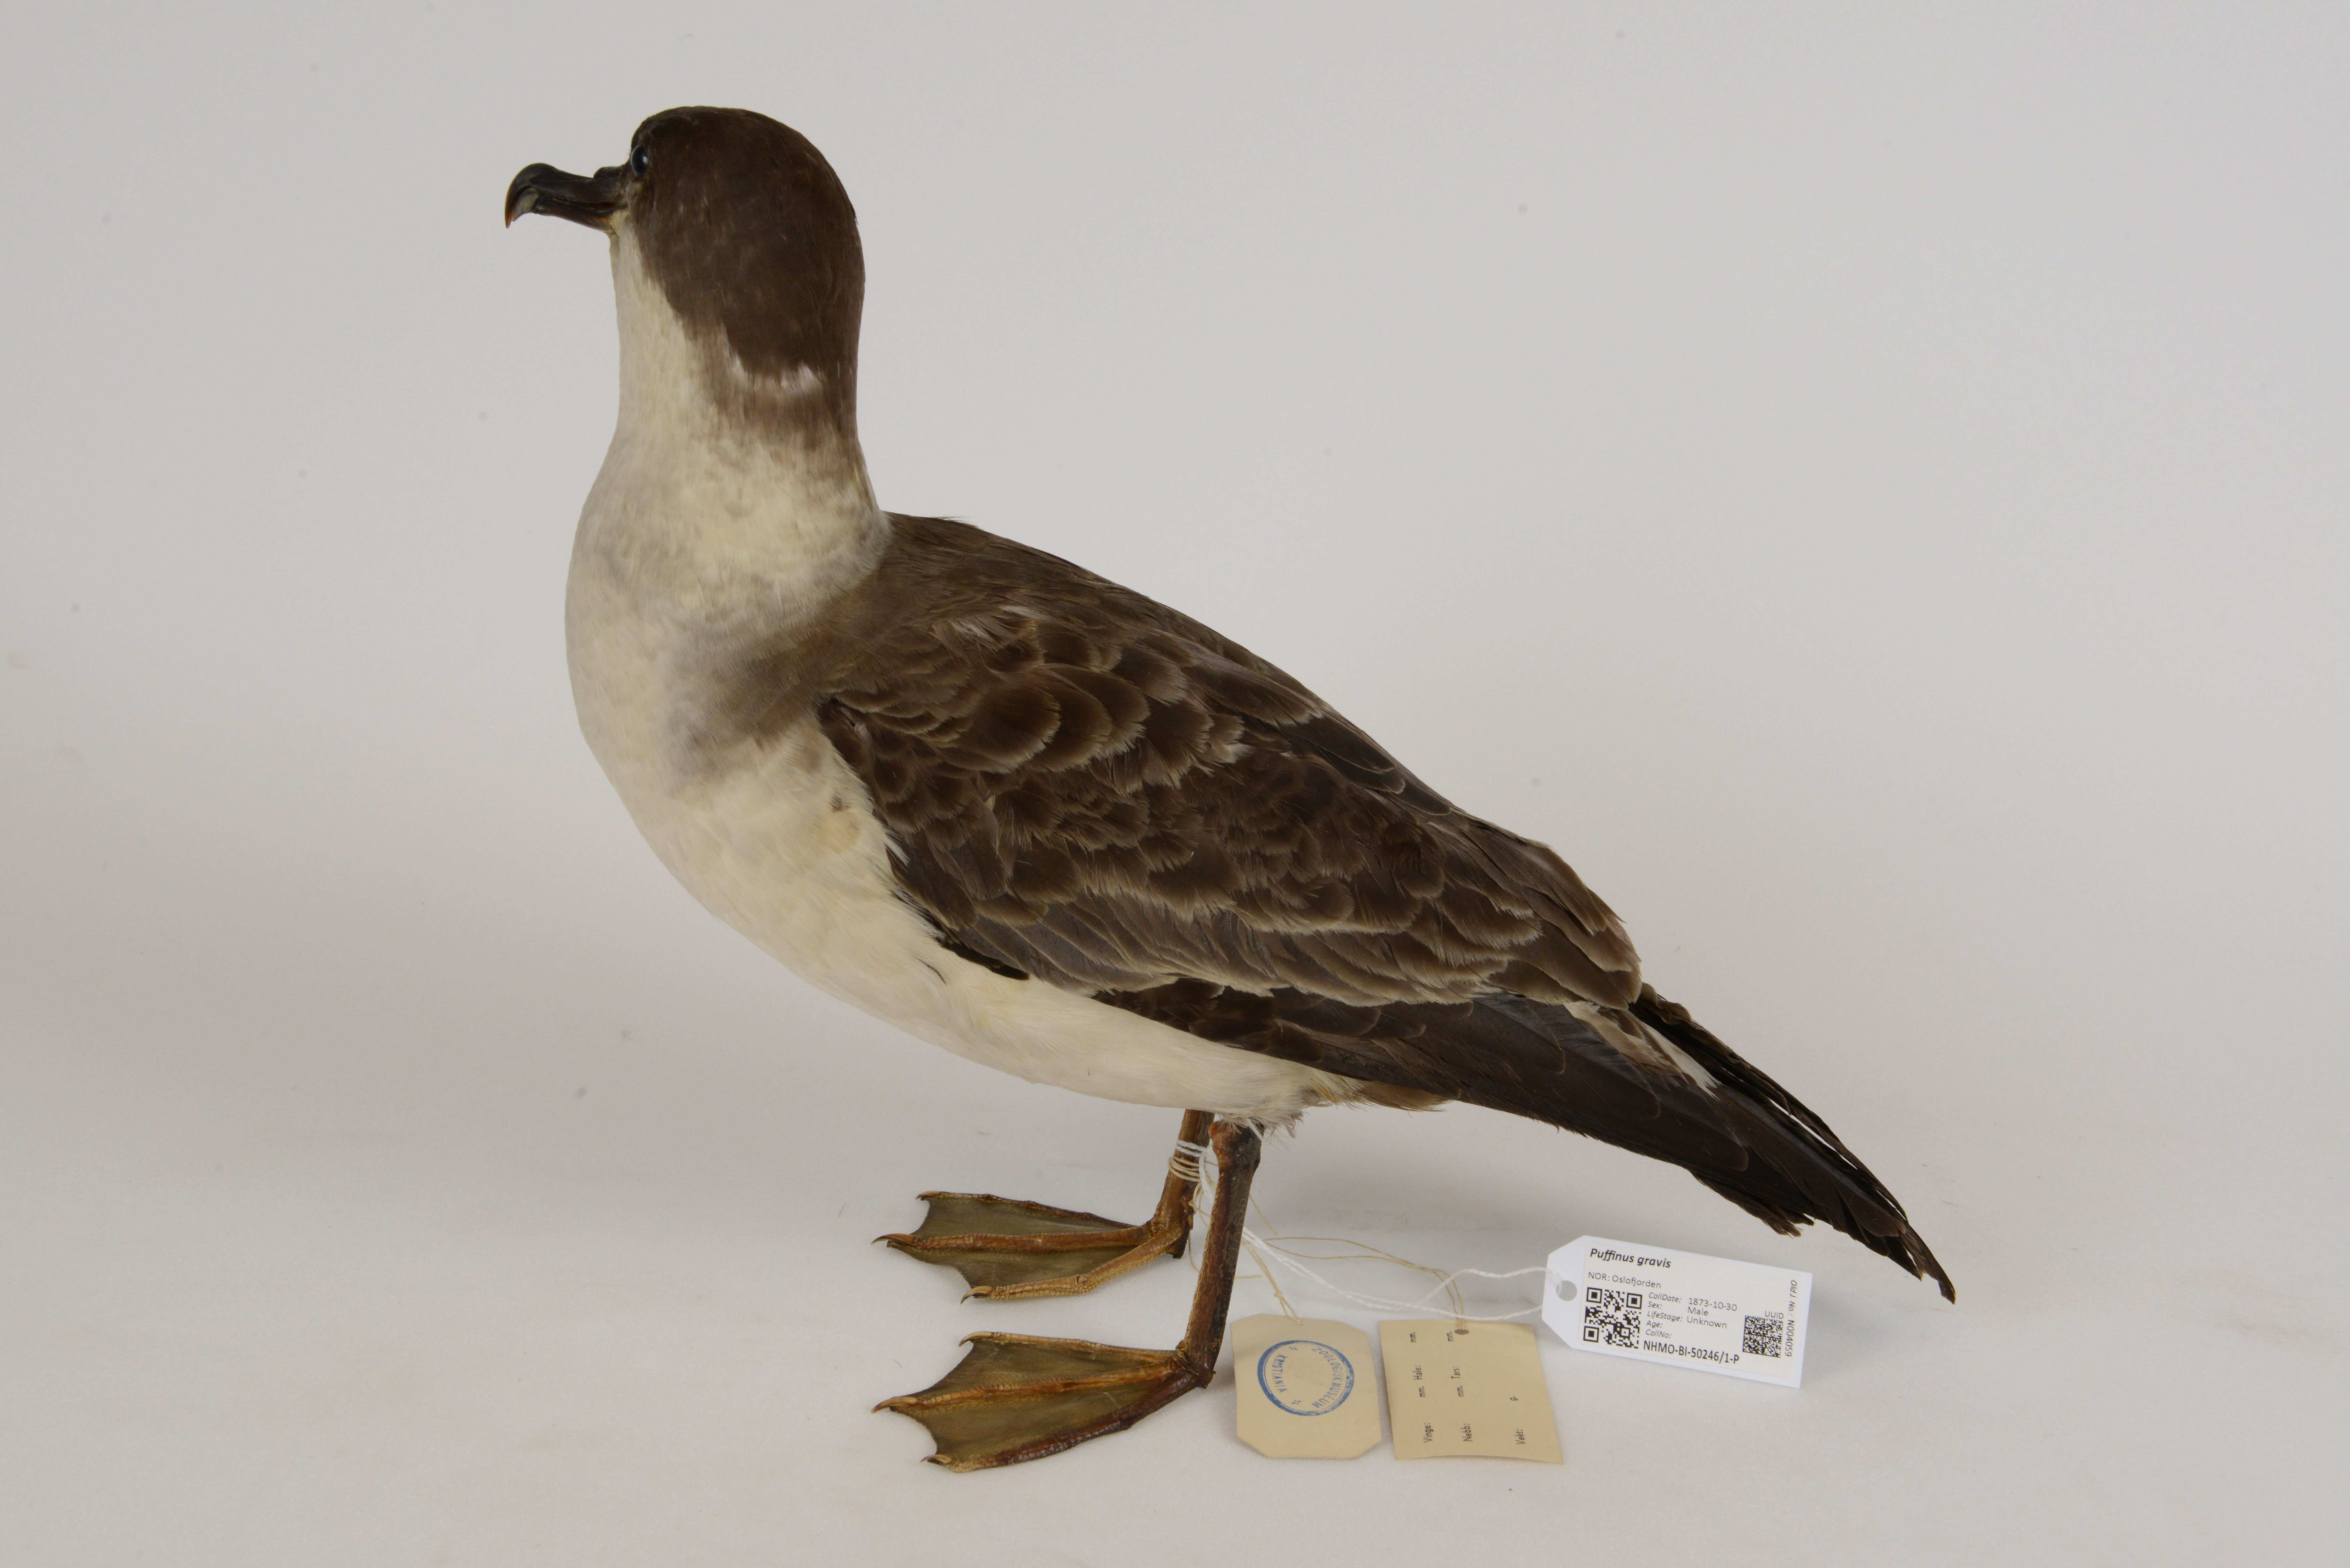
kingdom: Animalia
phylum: Chordata
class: Aves
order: Procellariiformes
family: Procellariidae
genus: Puffinus
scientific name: Puffinus gravis
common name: Great shearwater
